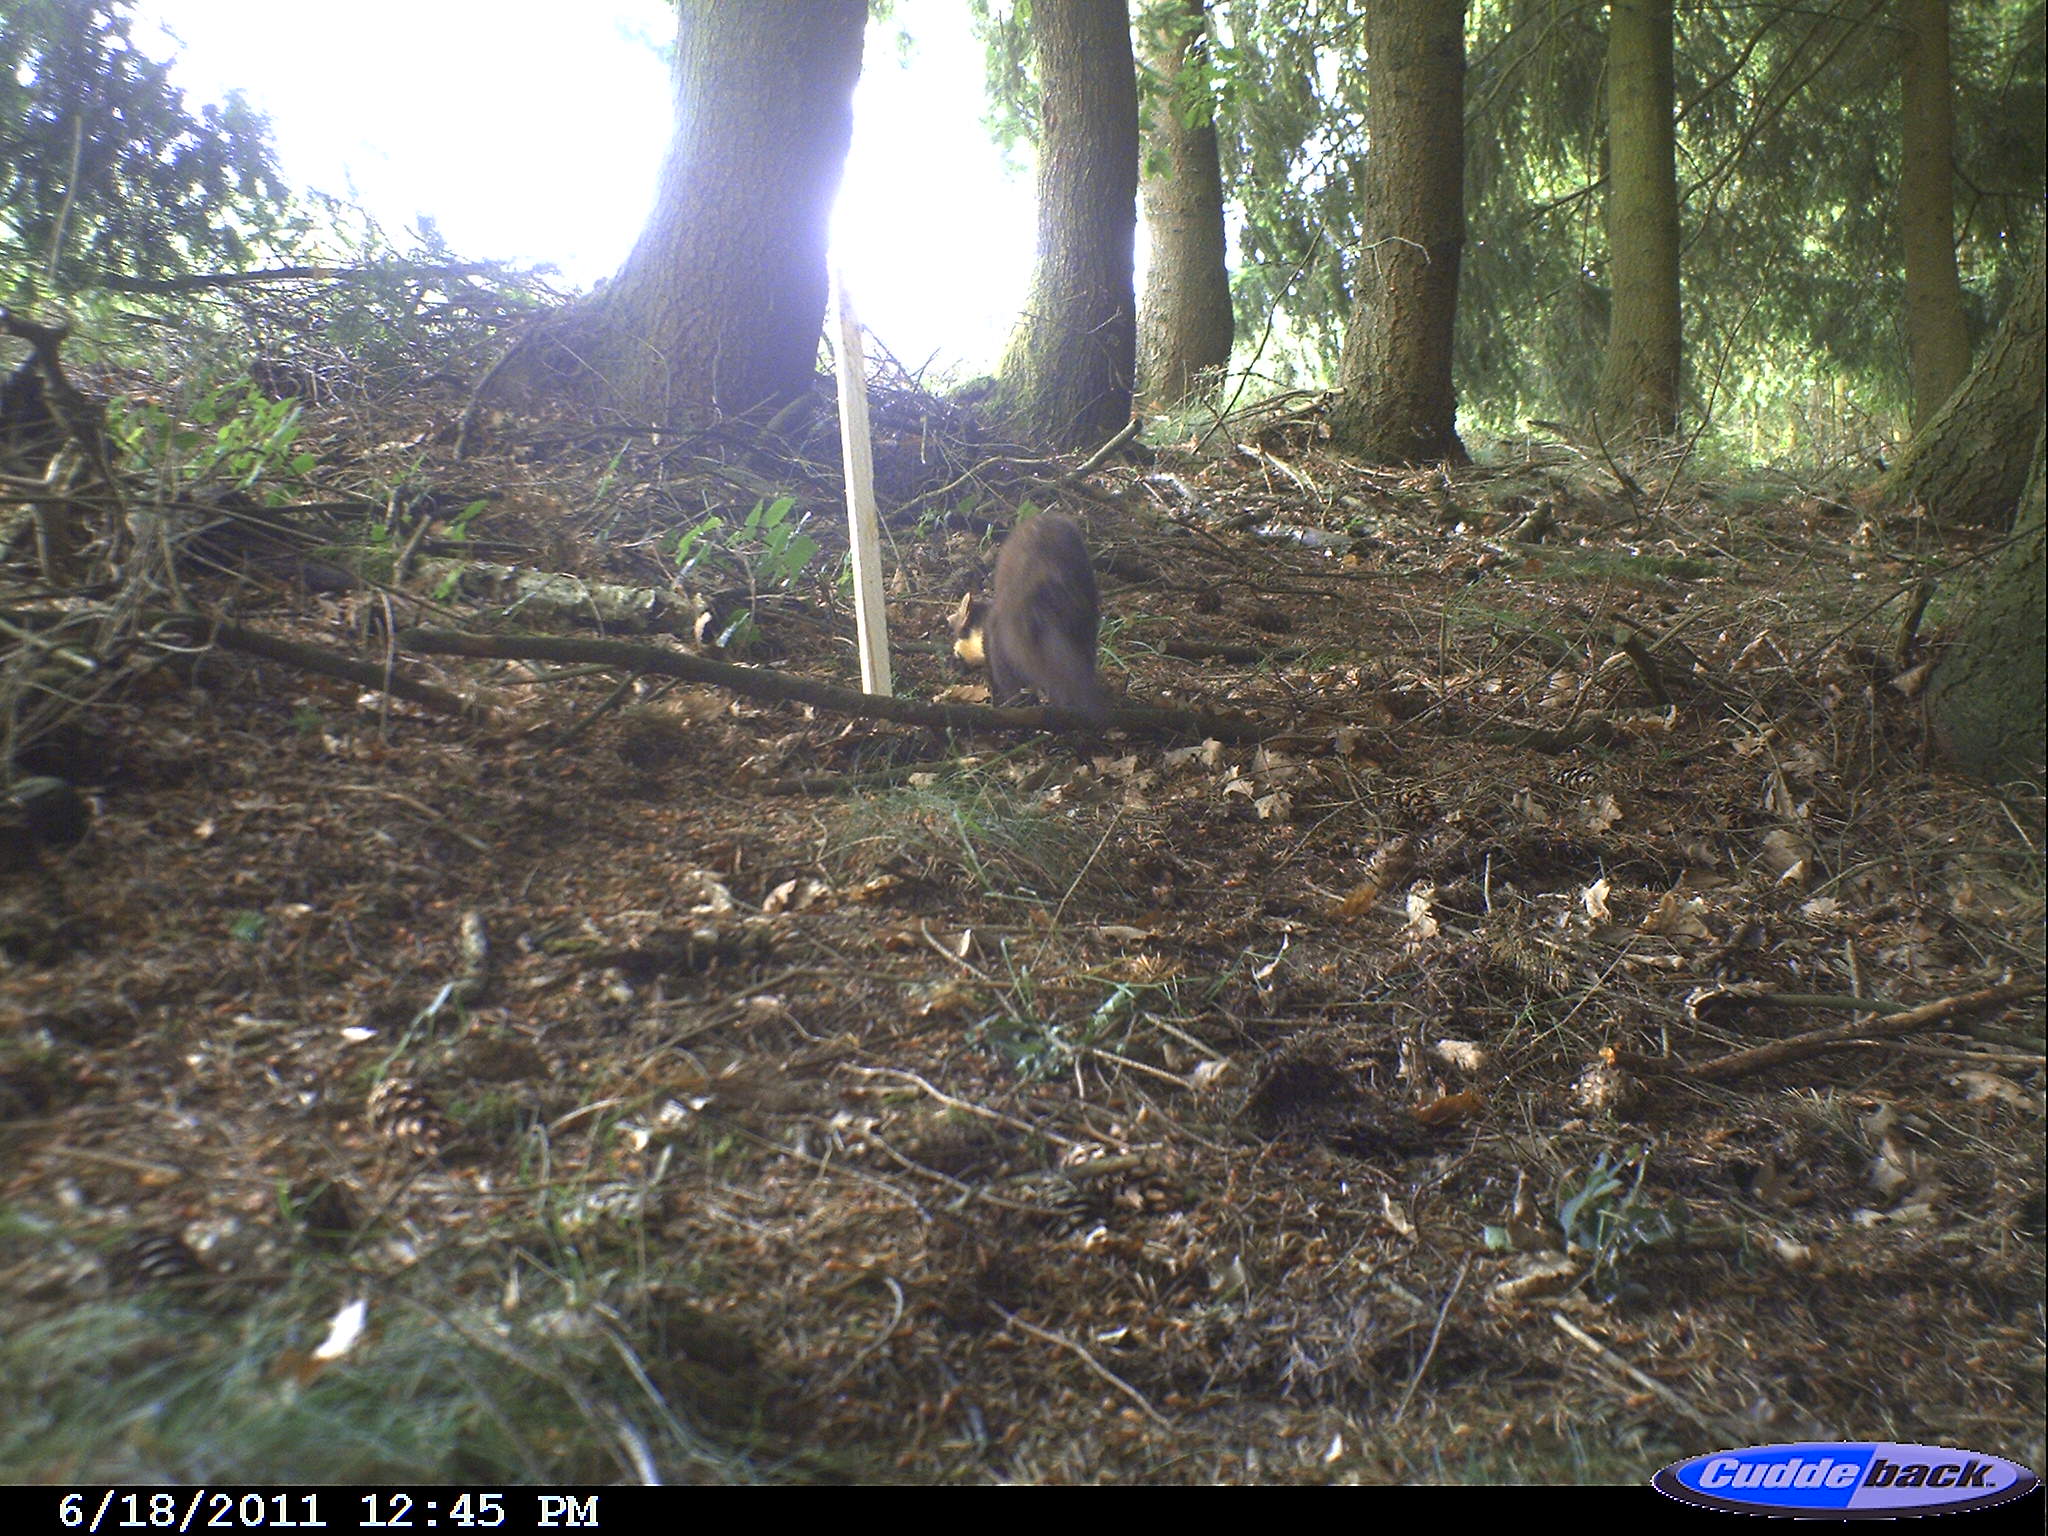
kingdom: Animalia
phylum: Chordata
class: Mammalia
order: Carnivora
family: Mustelidae
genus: Martes
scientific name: Martes martes
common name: European pine marten
